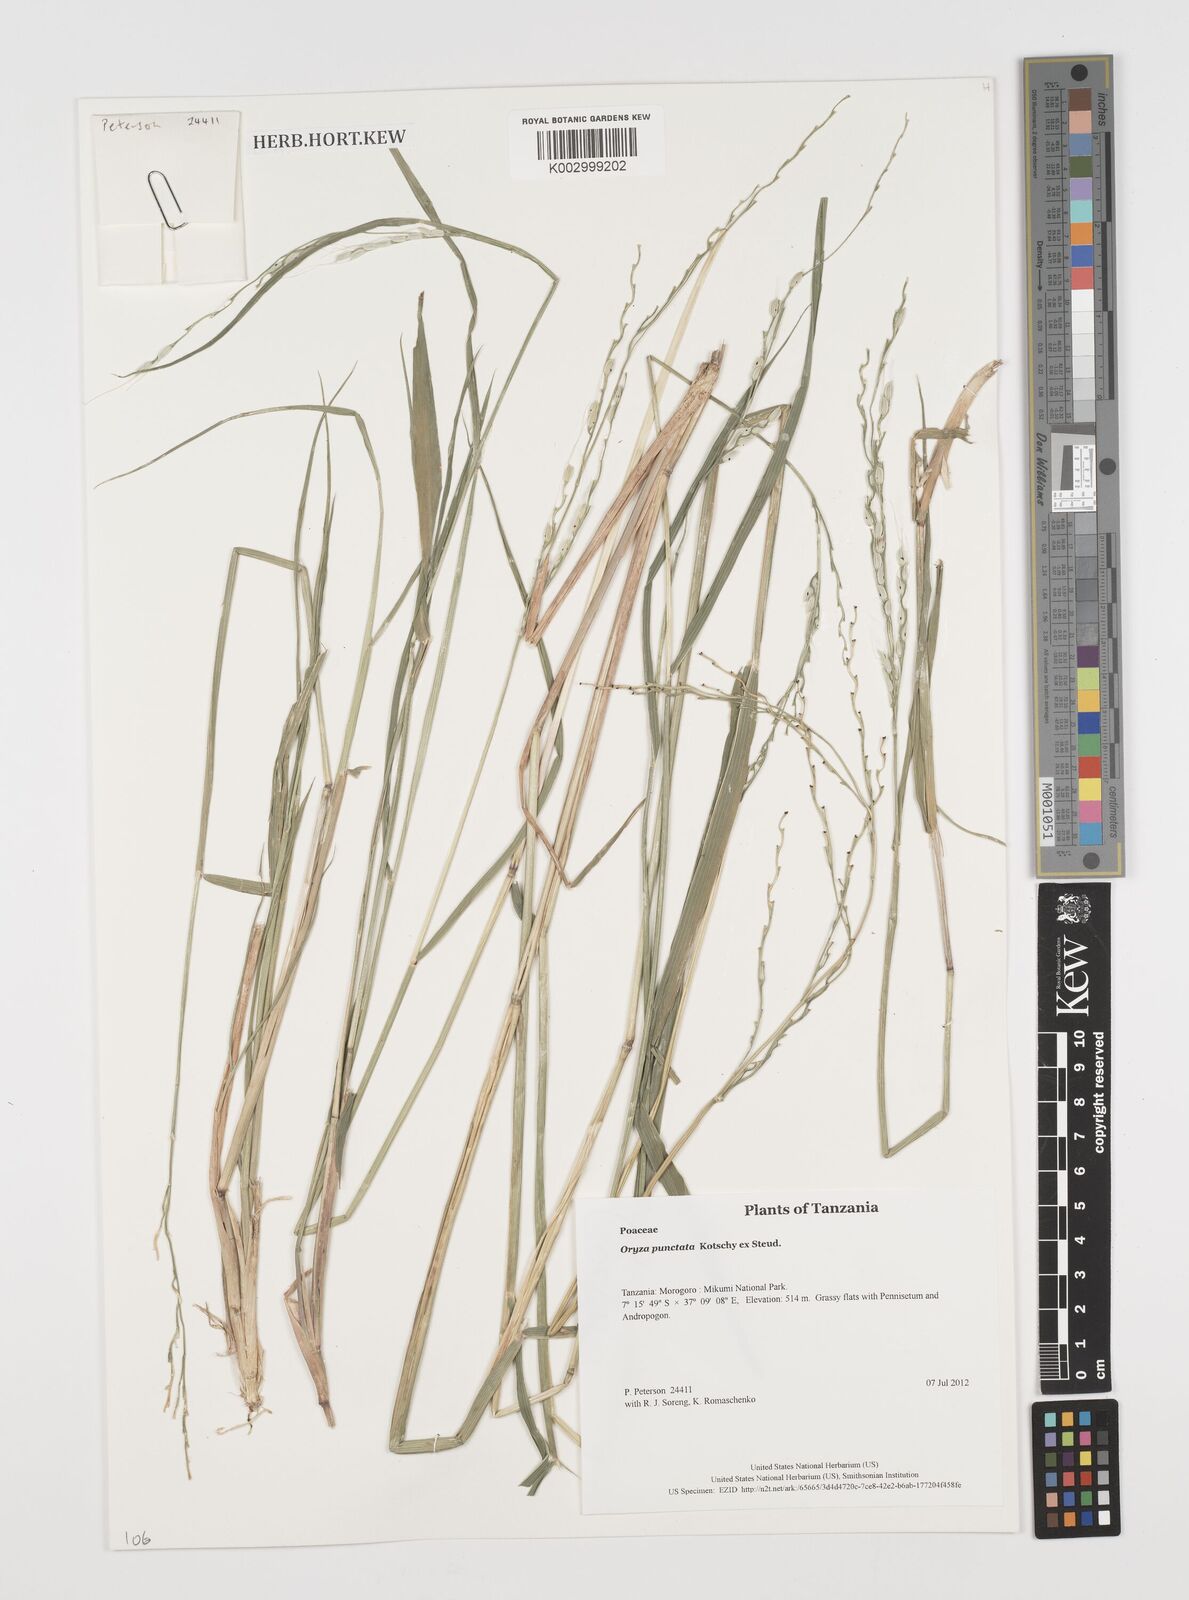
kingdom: Plantae
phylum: Tracheophyta
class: Liliopsida
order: Poales
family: Poaceae
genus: Oryza
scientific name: Oryza punctata
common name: Red rice
